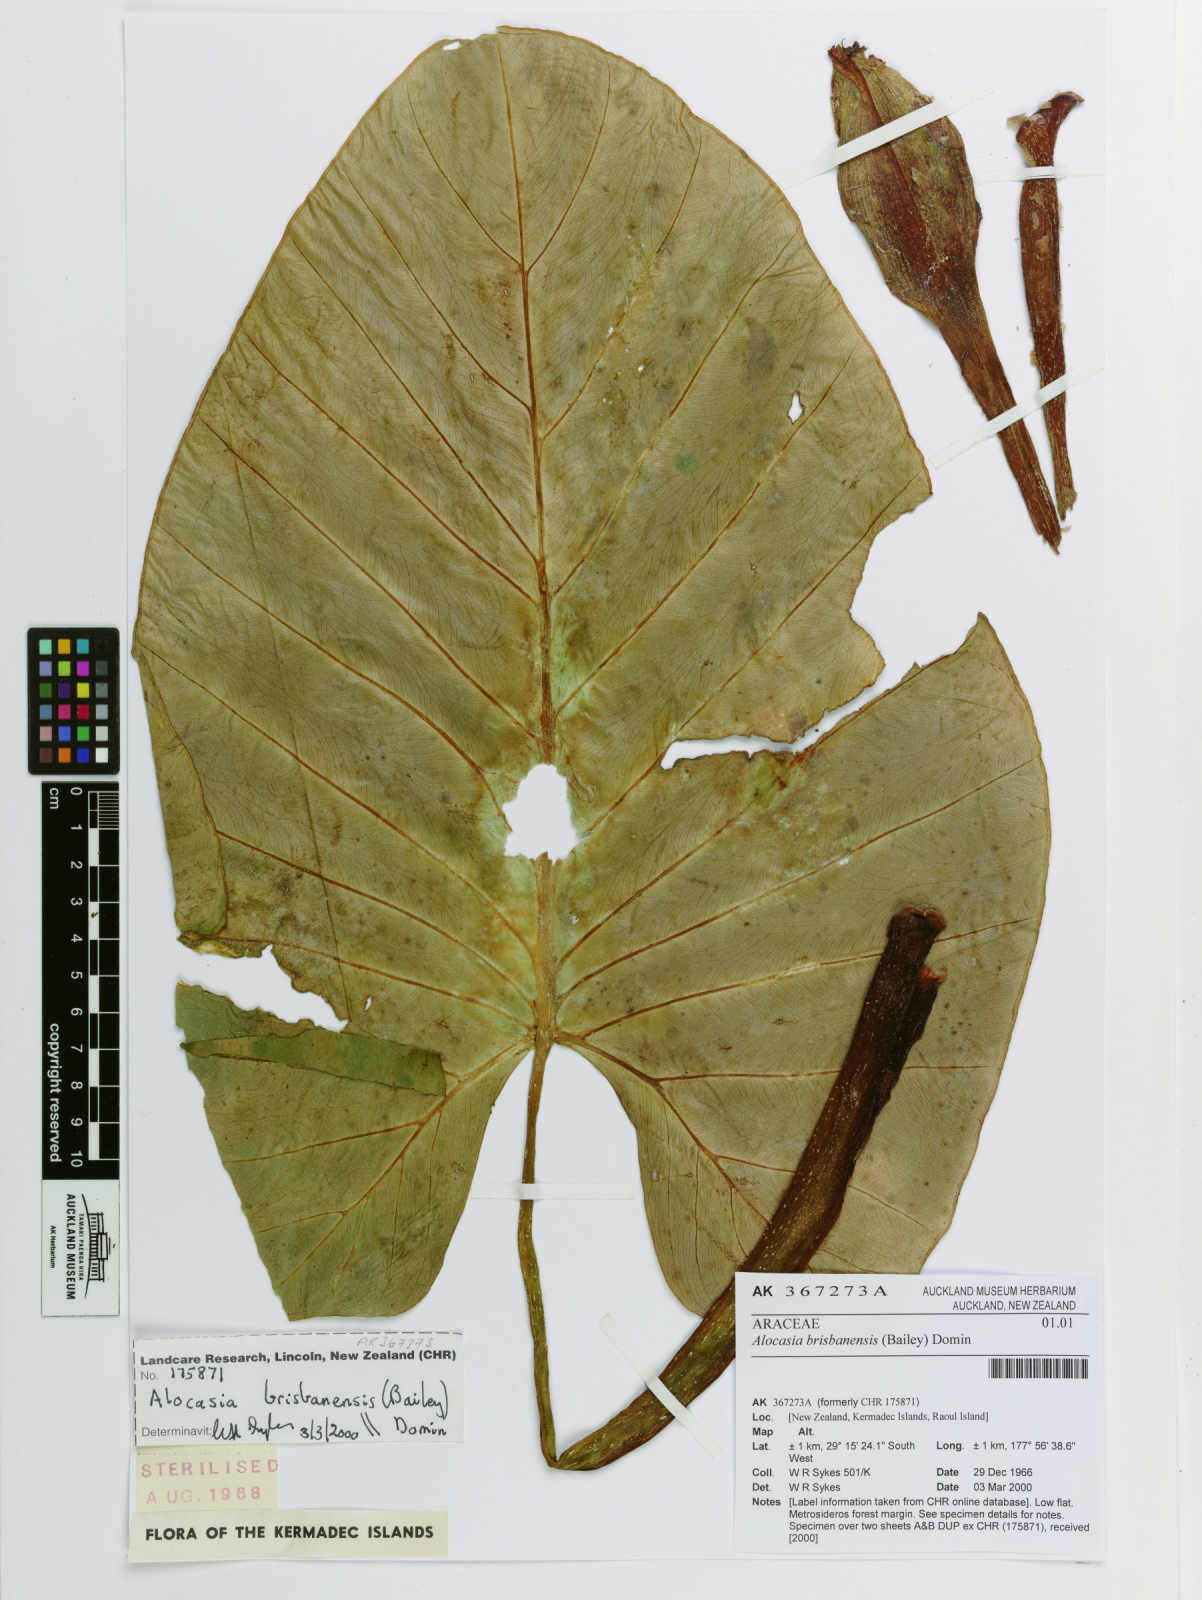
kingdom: Plantae
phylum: Tracheophyta
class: Liliopsida
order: Alismatales
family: Araceae
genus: Alocasia
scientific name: Alocasia brisbanensis
